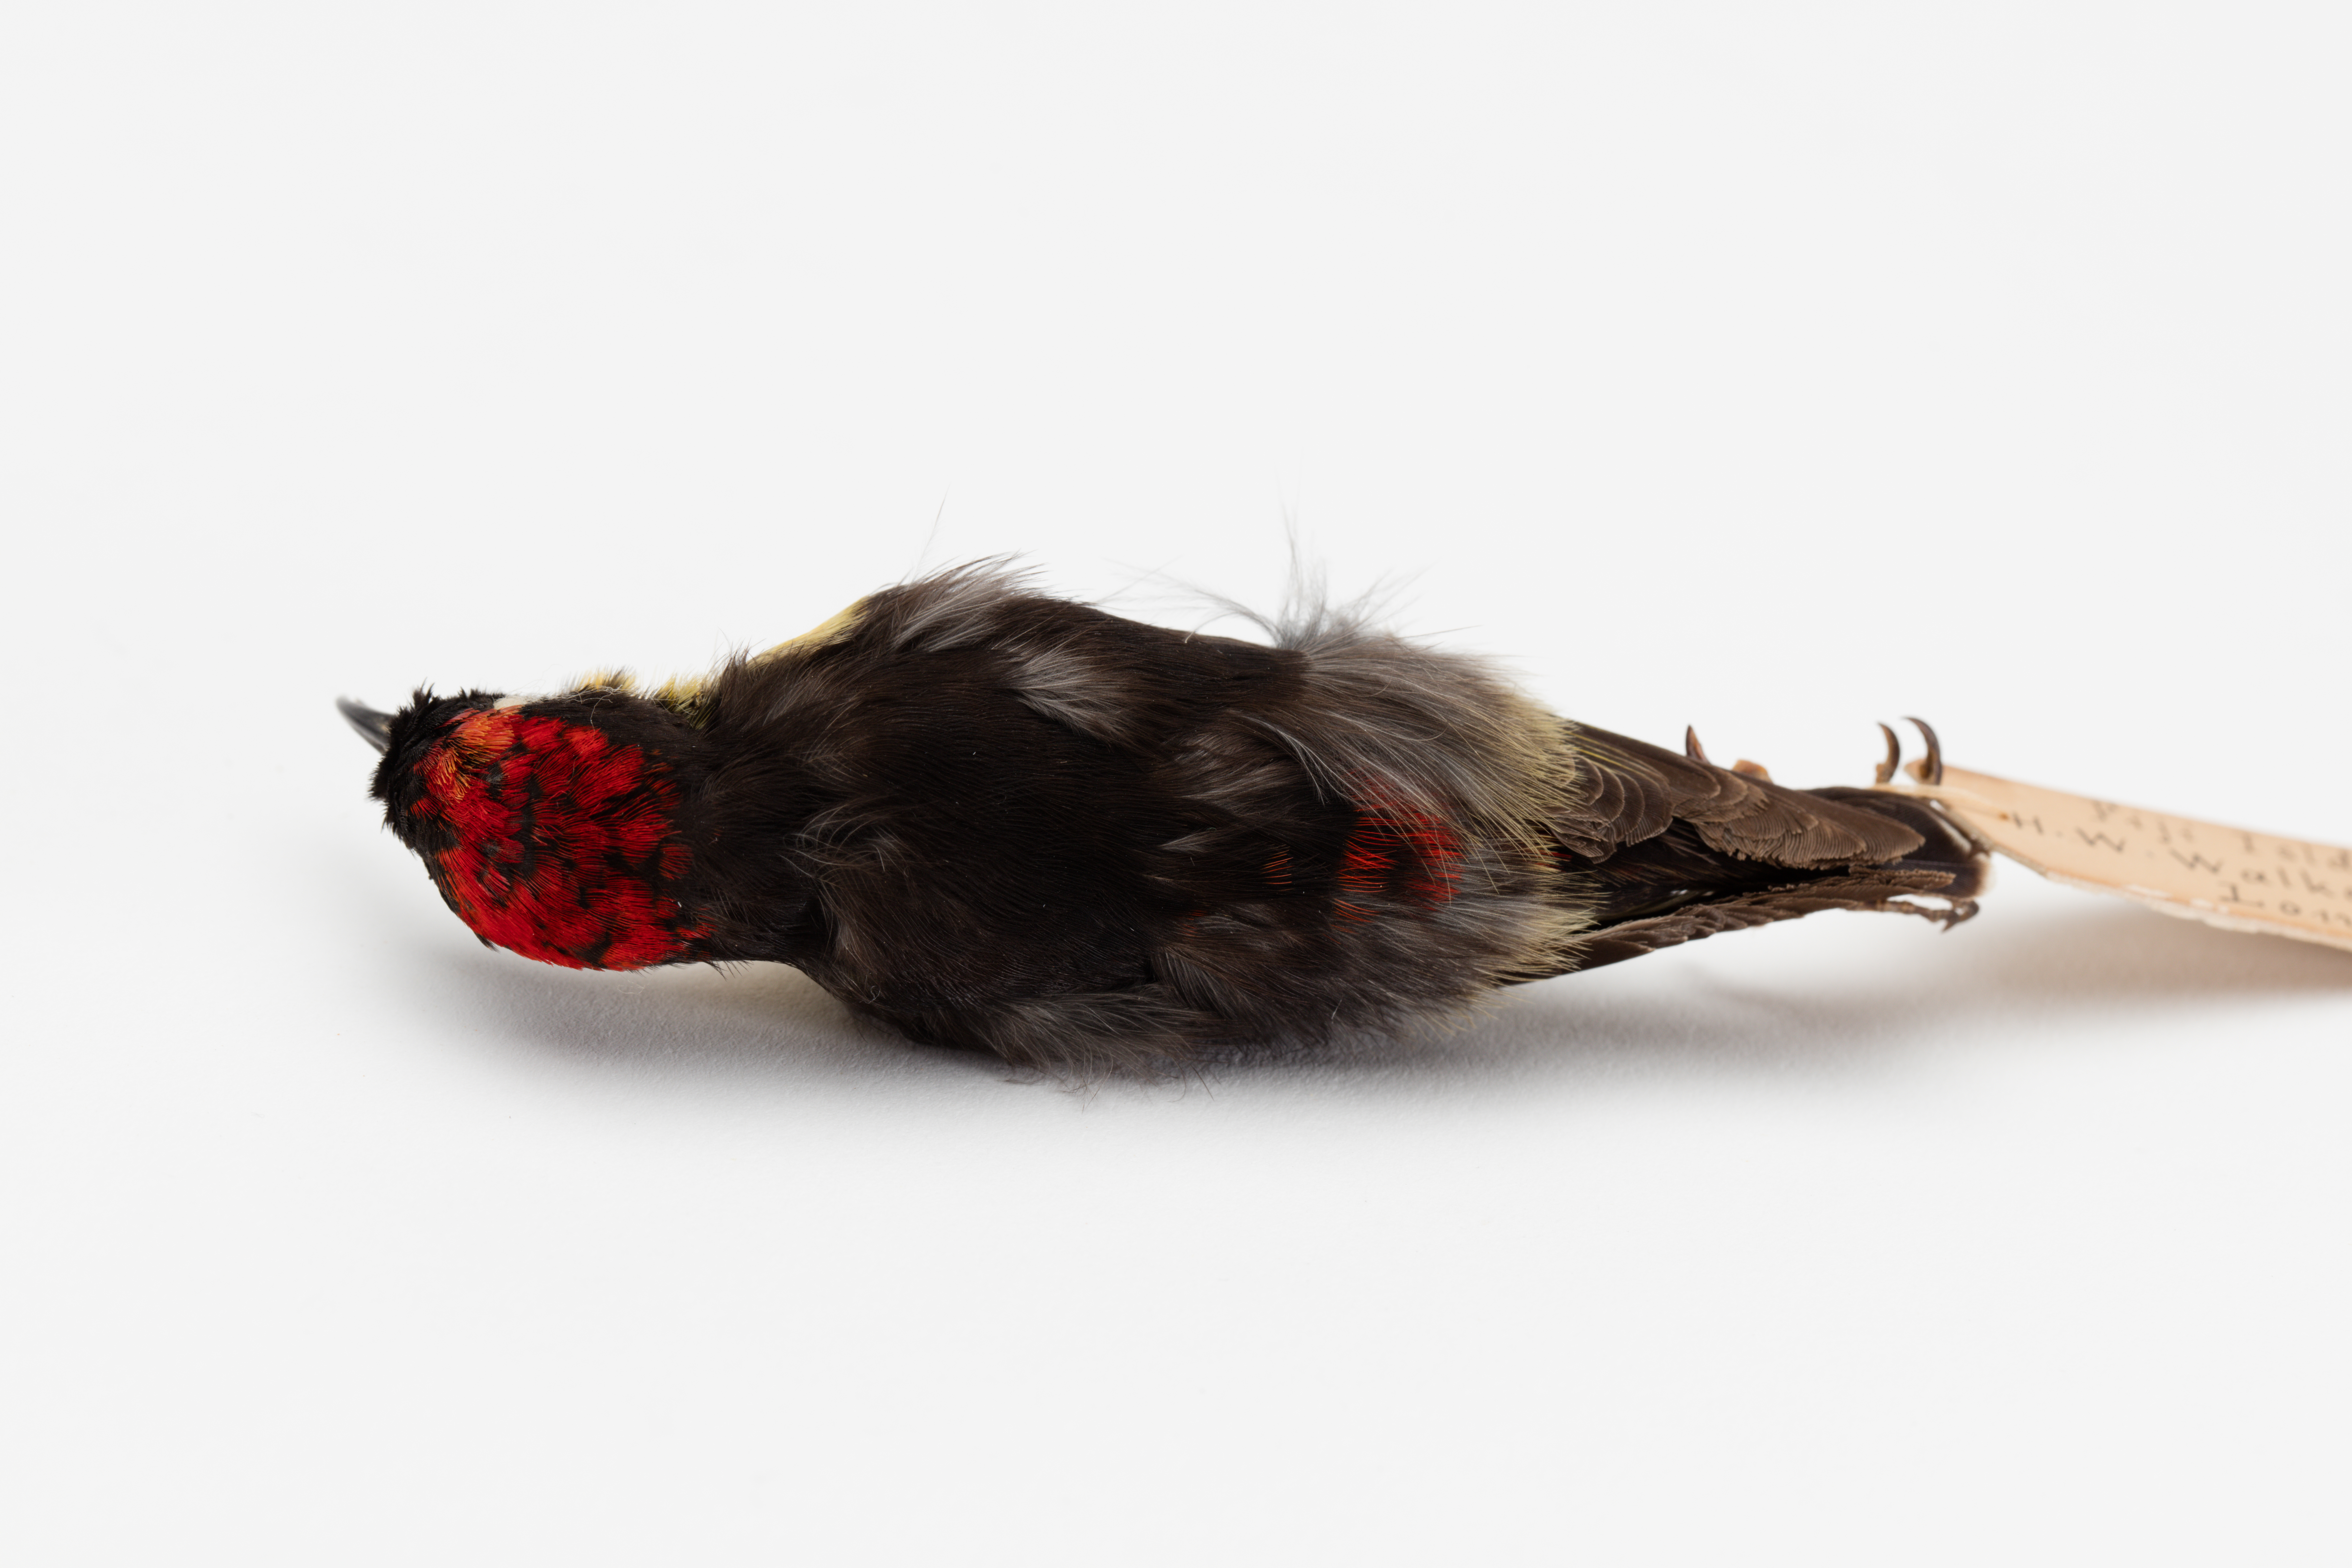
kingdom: Animalia
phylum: Chordata
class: Aves
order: Passeriformes
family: Meliphagidae
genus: Myzomela
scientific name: Myzomela jugularis
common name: Sulphur-breasted myzomela
